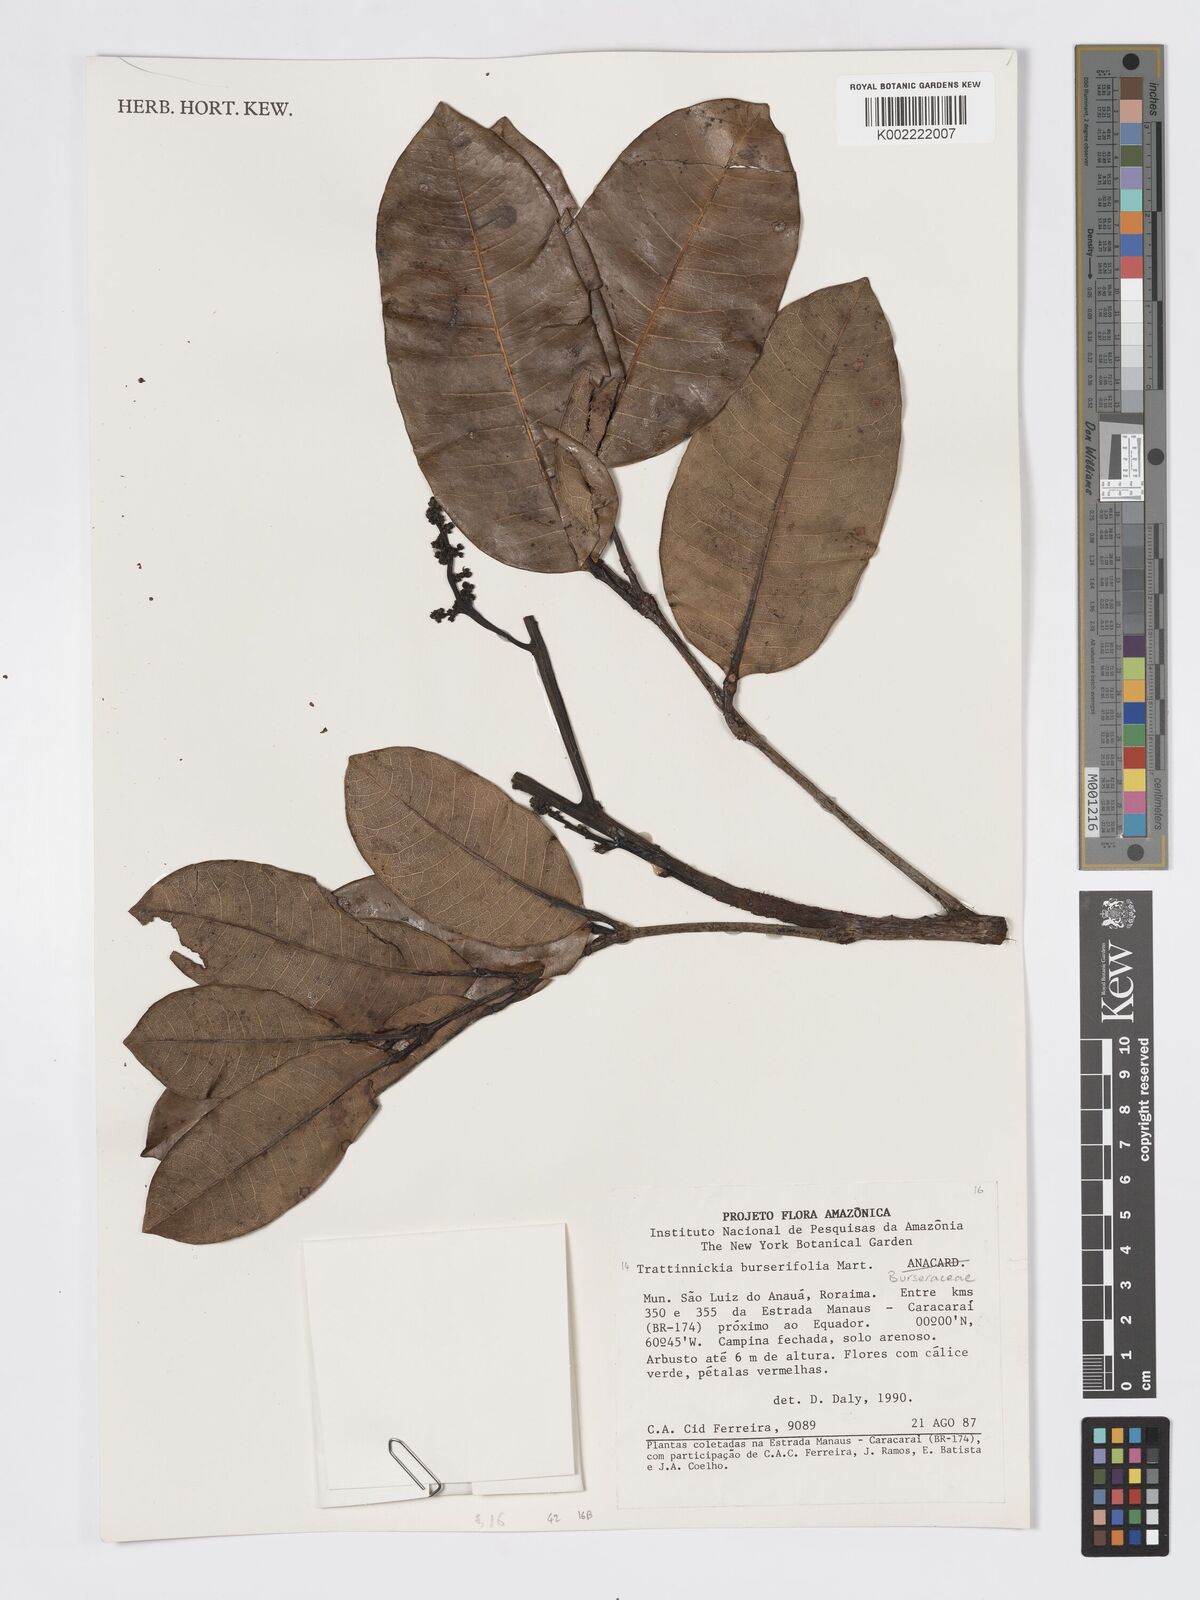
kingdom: Plantae
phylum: Tracheophyta
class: Magnoliopsida
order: Sapindales
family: Burseraceae
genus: Trattinnickia
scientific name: Trattinnickia burserifolia
